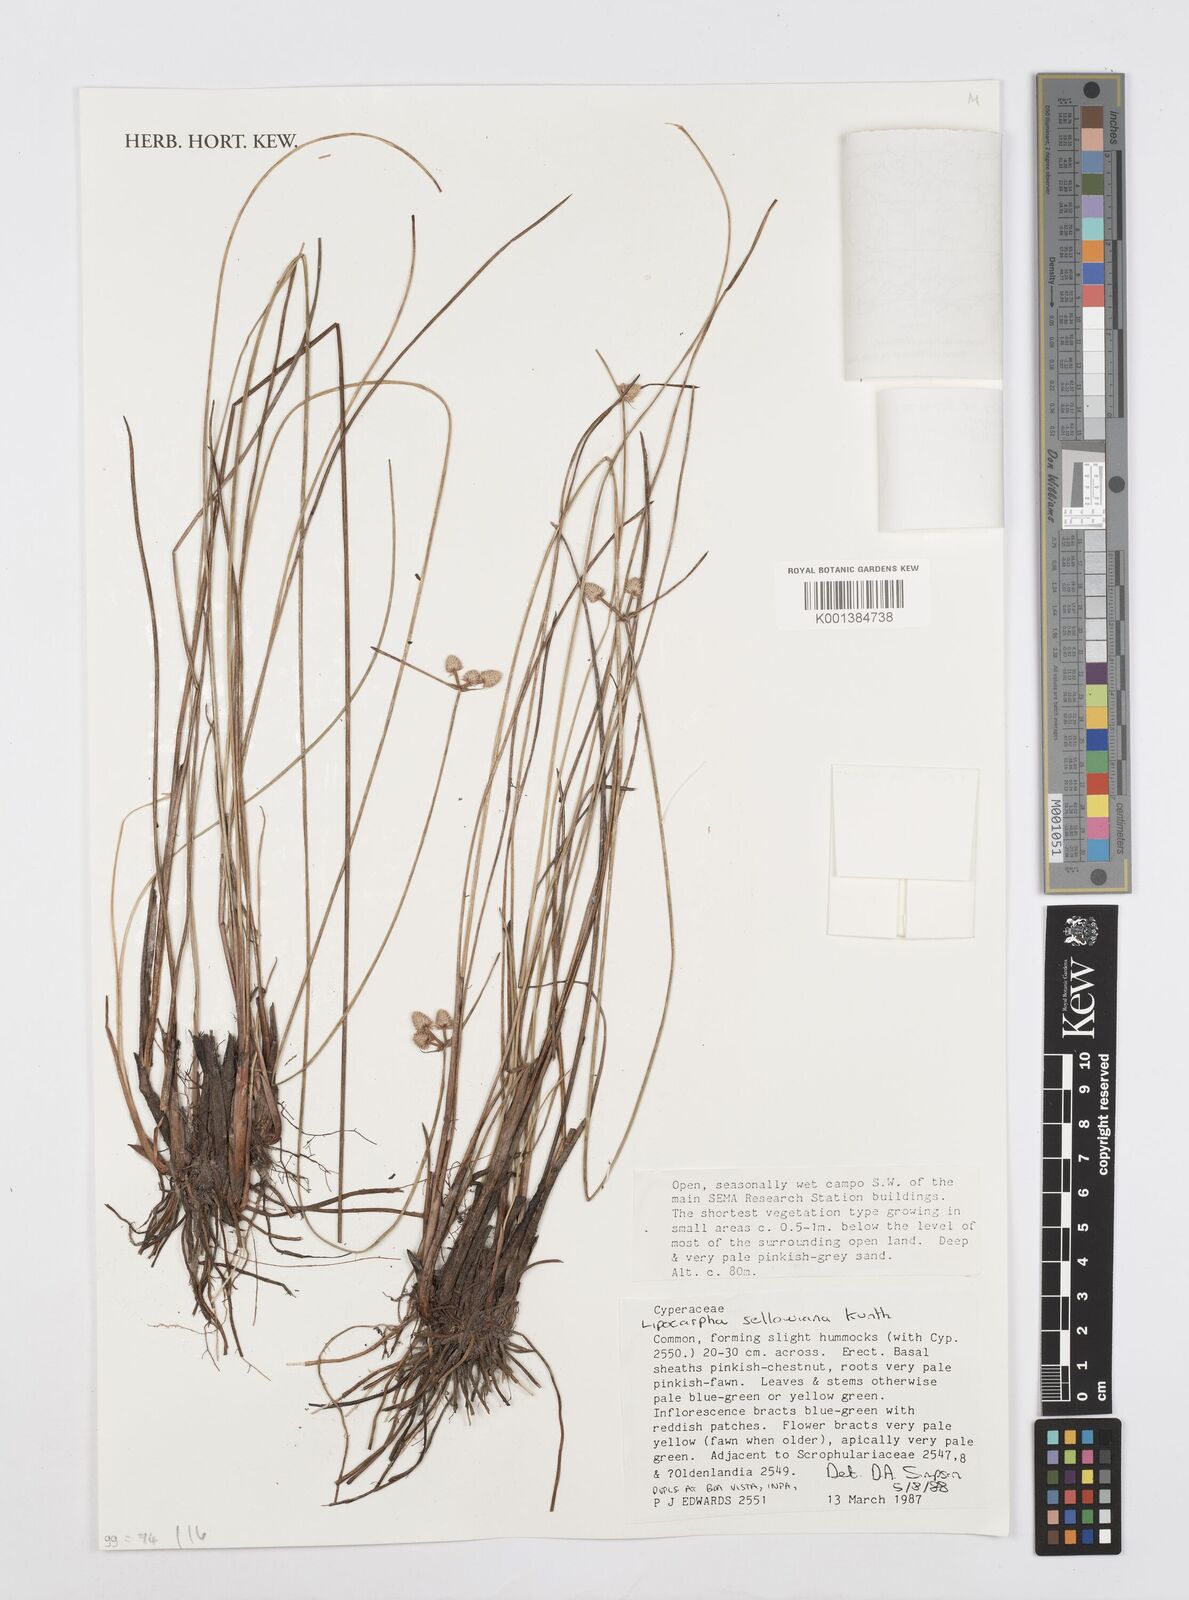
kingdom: Plantae
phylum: Tracheophyta
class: Liliopsida
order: Poales
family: Cyperaceae
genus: Cyperus
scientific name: Cyperus sellowianus
